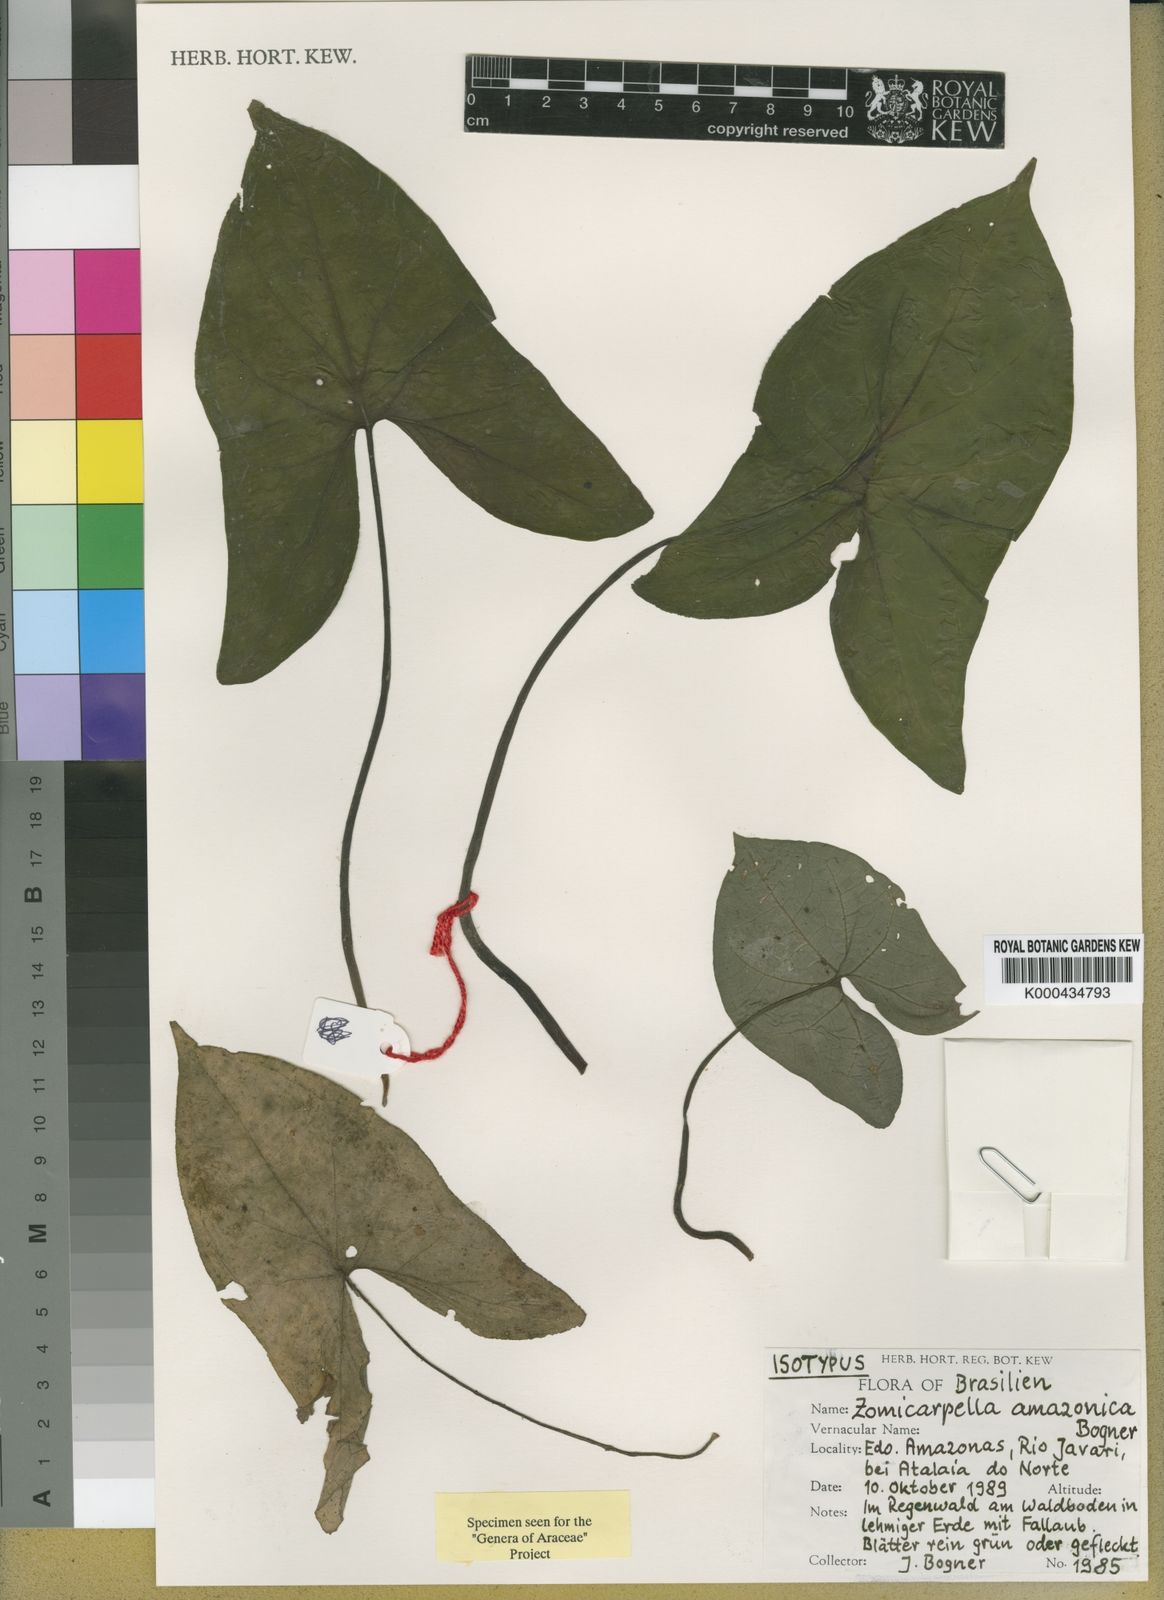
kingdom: Plantae
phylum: Tracheophyta
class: Liliopsida
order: Alismatales
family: Araceae
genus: Zomicarpella
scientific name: Zomicarpella amazonica
